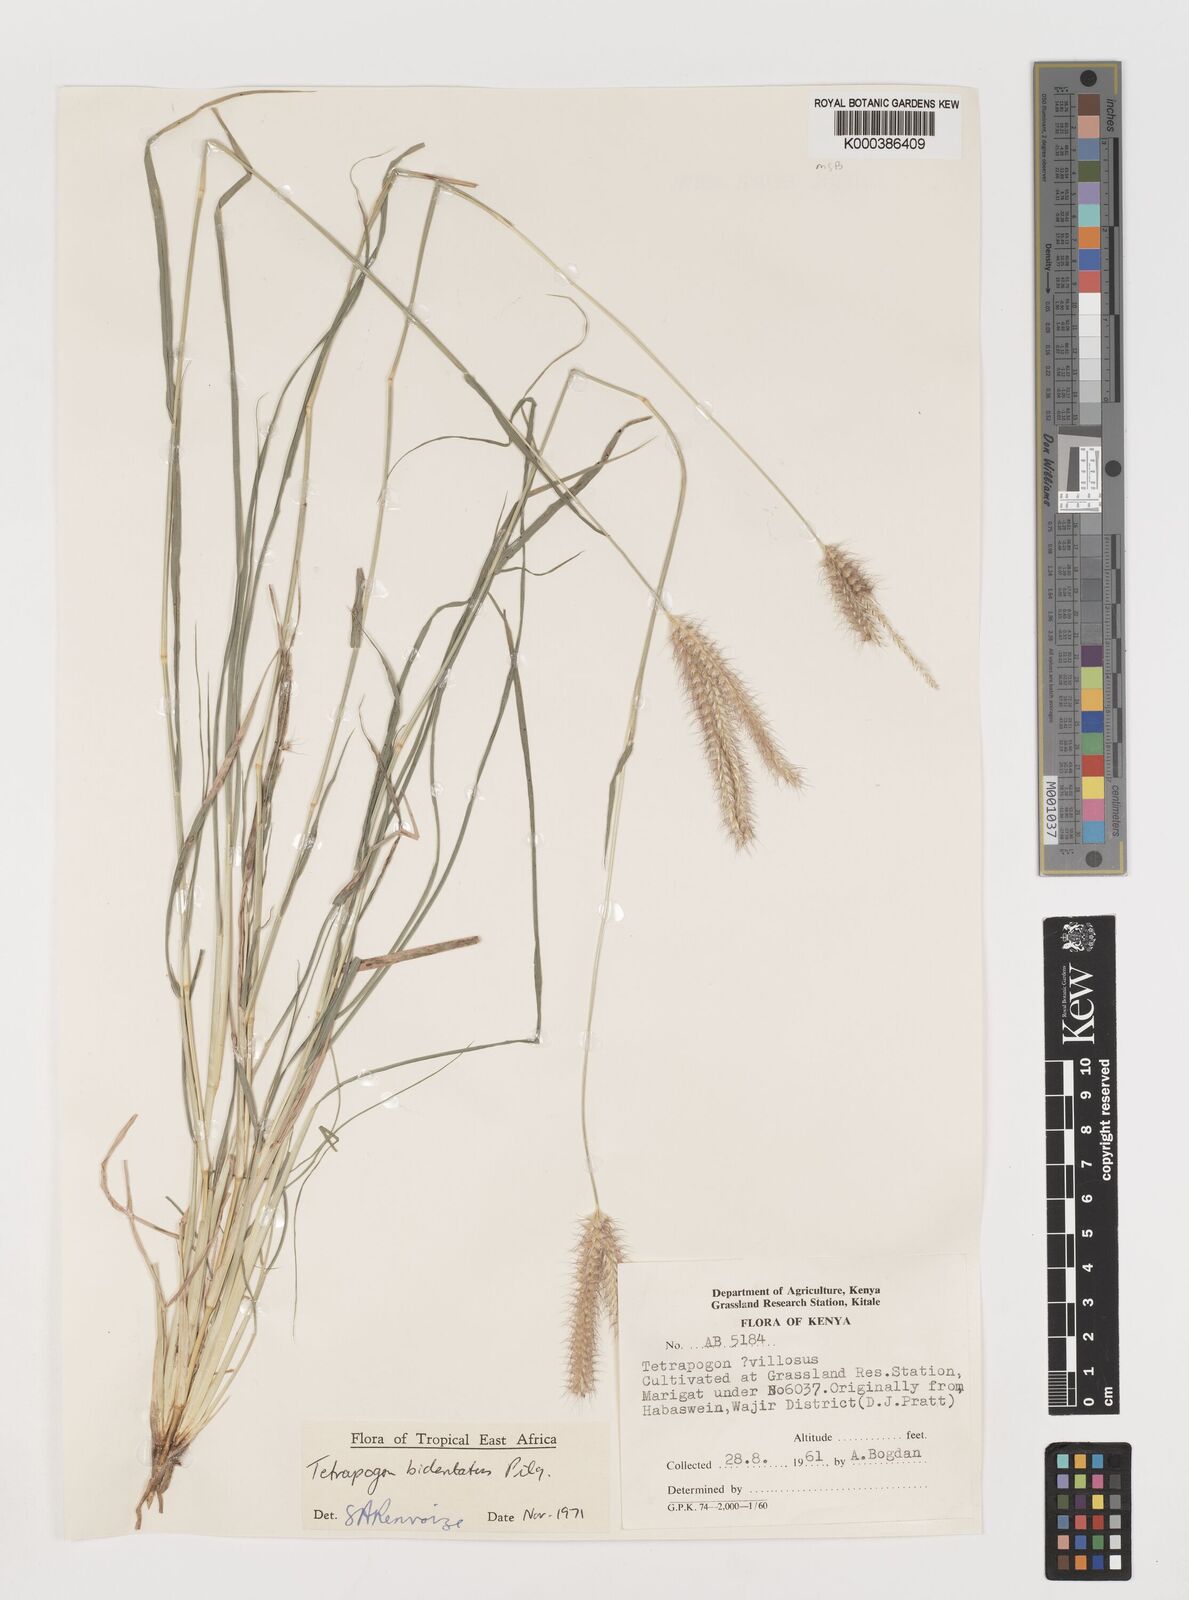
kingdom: Plantae
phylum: Tracheophyta
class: Liliopsida
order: Poales
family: Poaceae
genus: Tetrapogon
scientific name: Tetrapogon bidentatus
